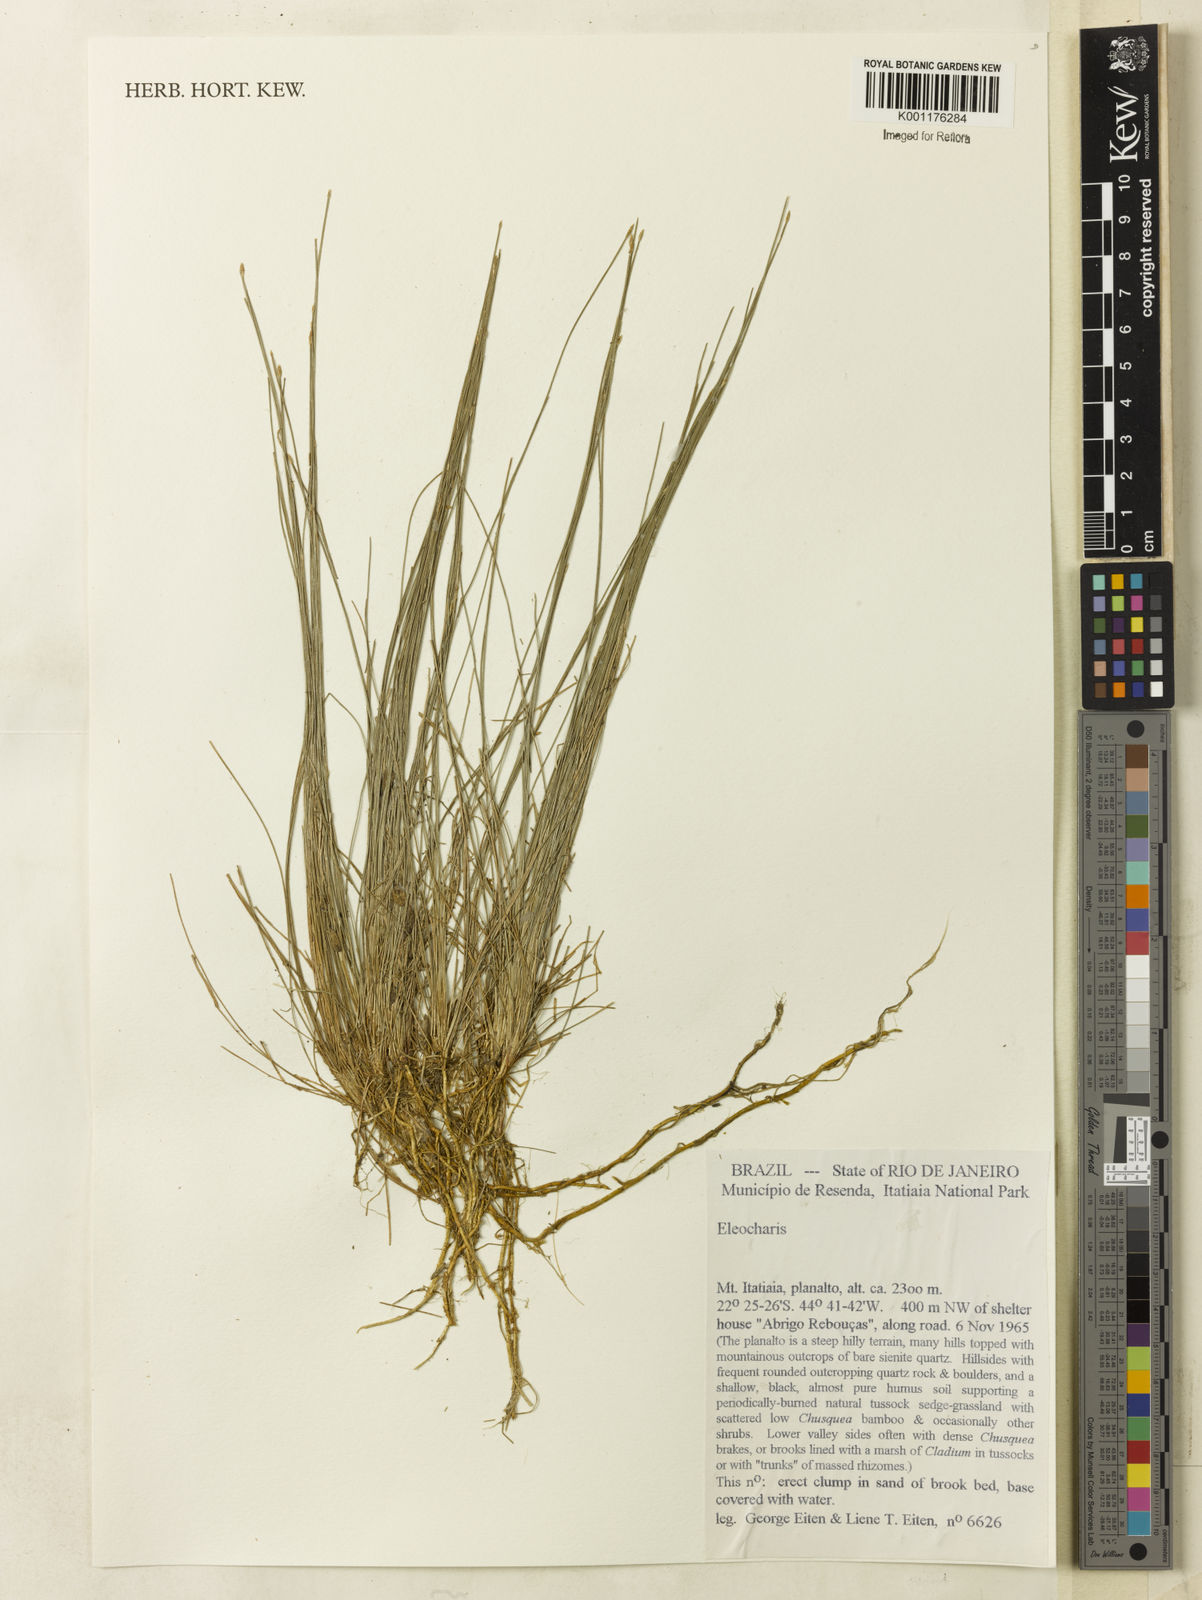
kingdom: Plantae
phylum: Tracheophyta
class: Liliopsida
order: Poales
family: Cyperaceae
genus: Eleocharis
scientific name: Eleocharis
